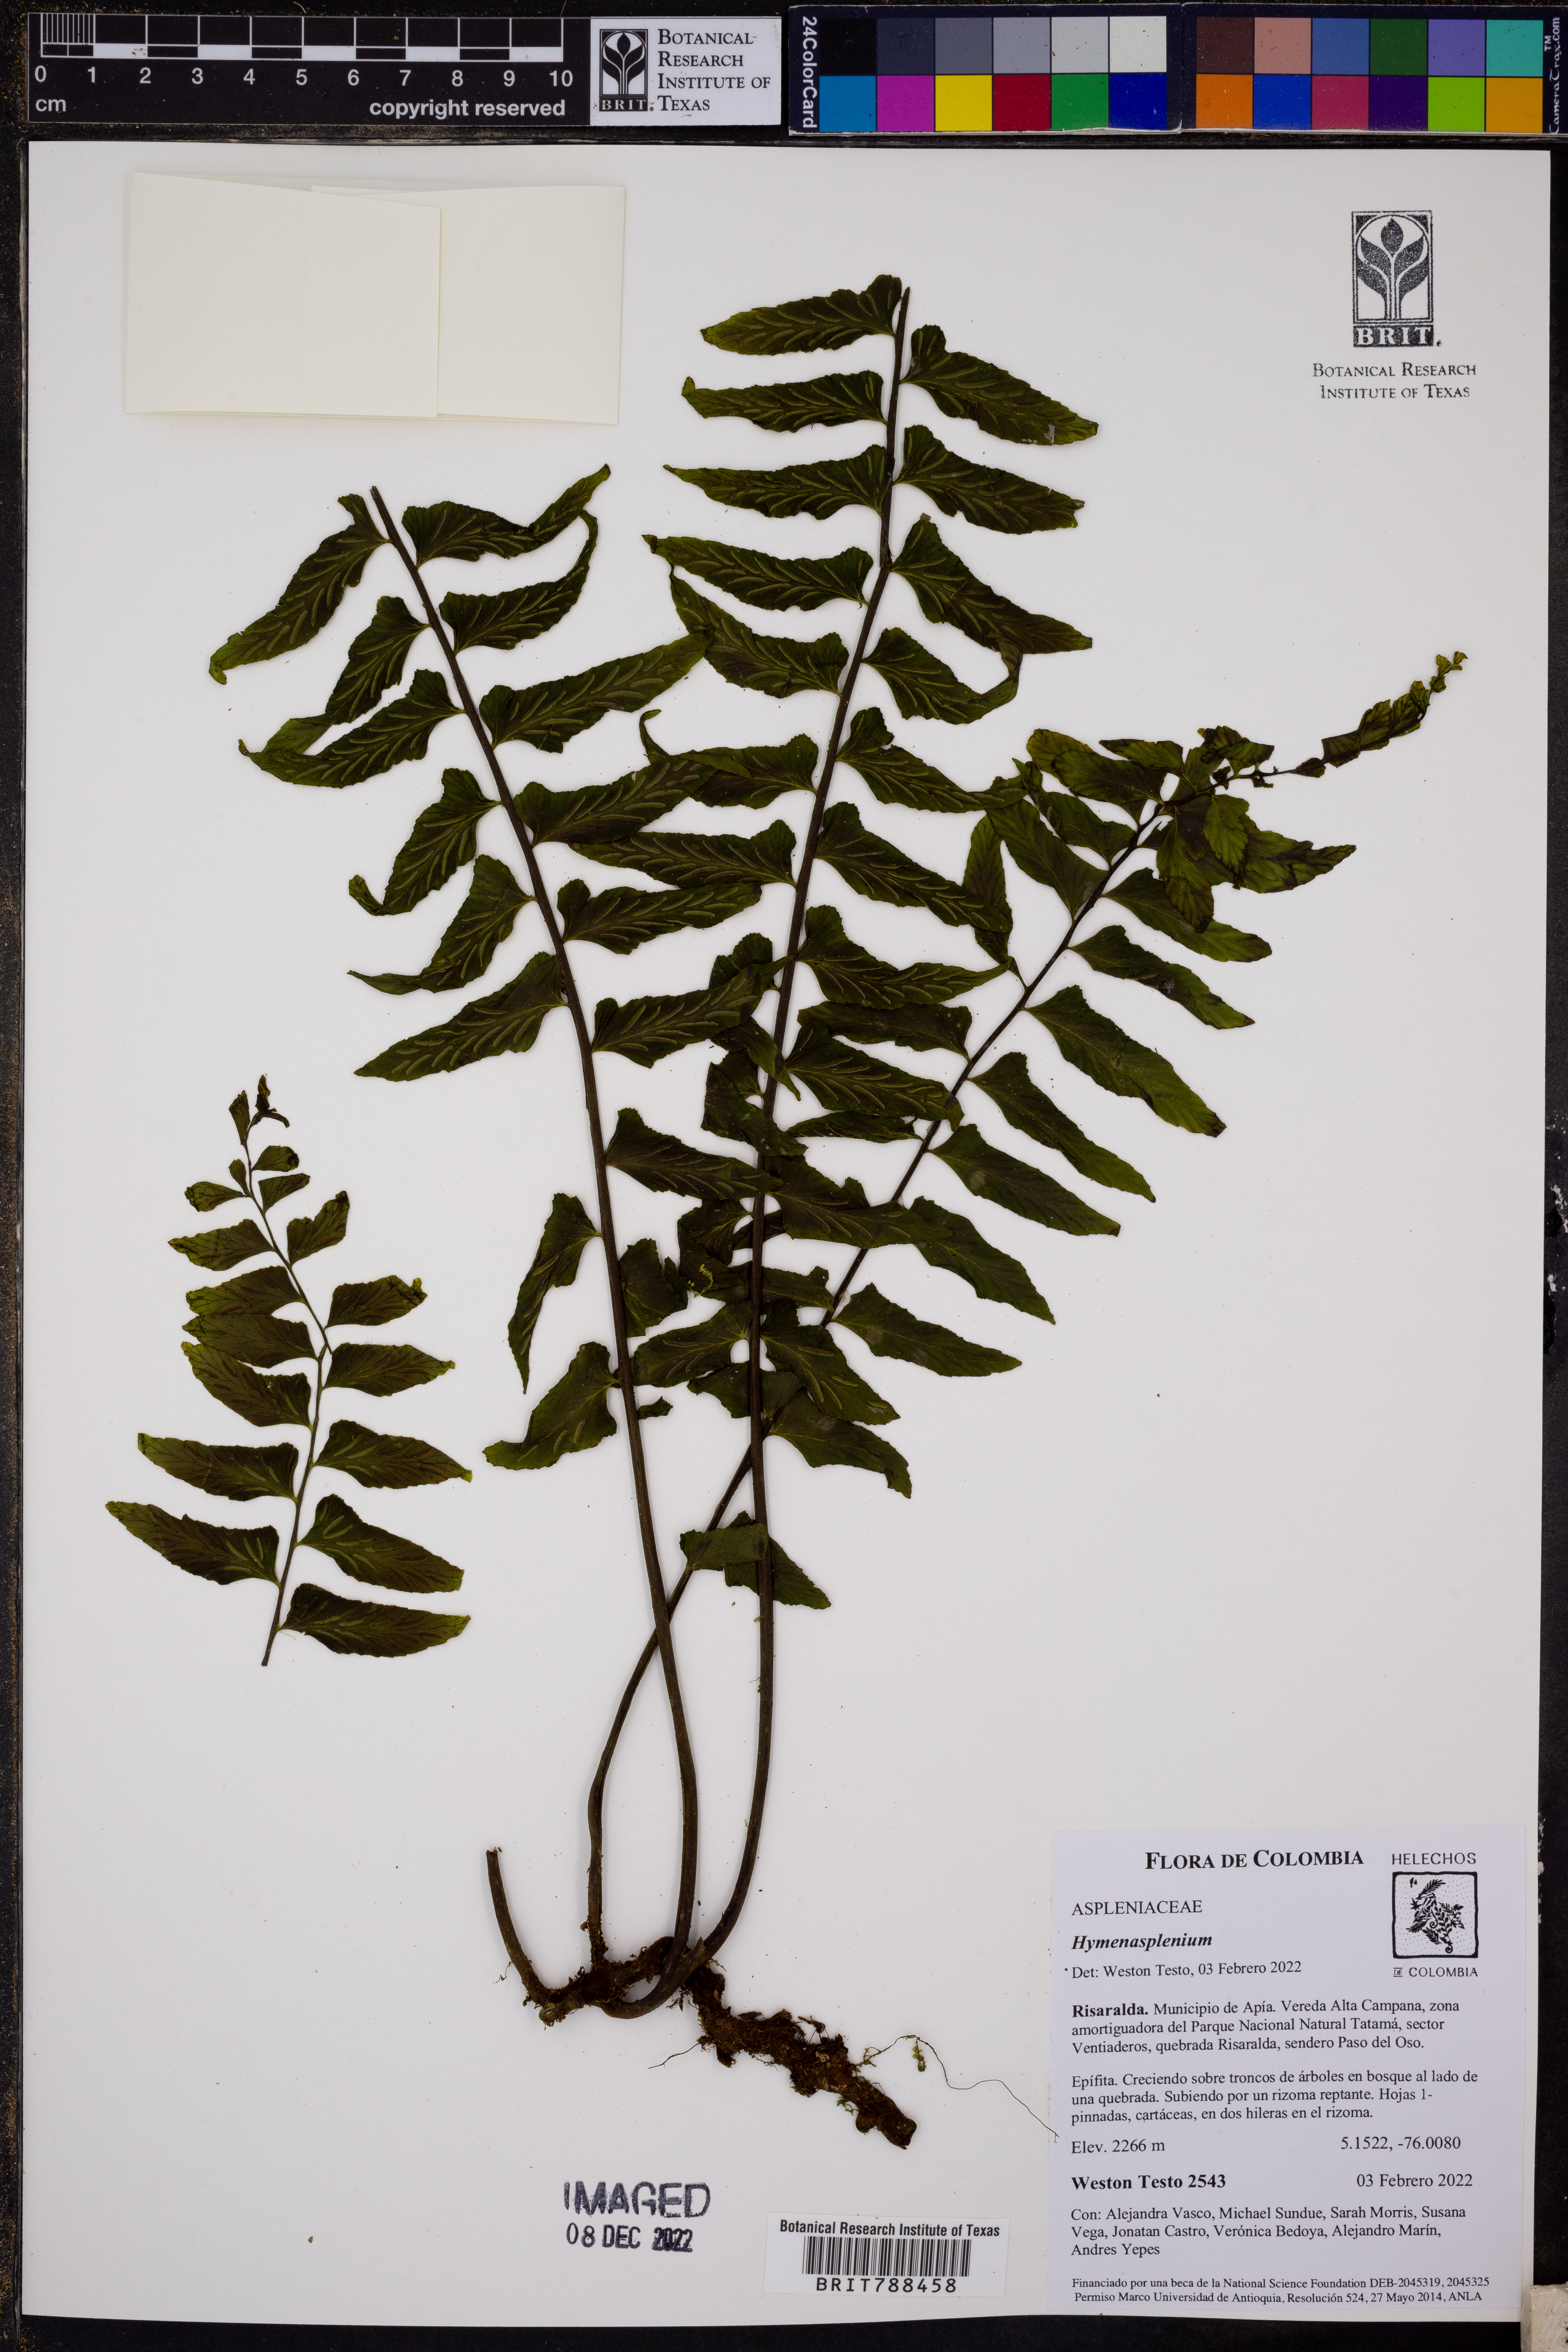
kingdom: Plantae
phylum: Tracheophyta
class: Polypodiopsida
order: Polypodiales
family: Aspleniaceae
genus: Hymenasplenium
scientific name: Hymenasplenium
